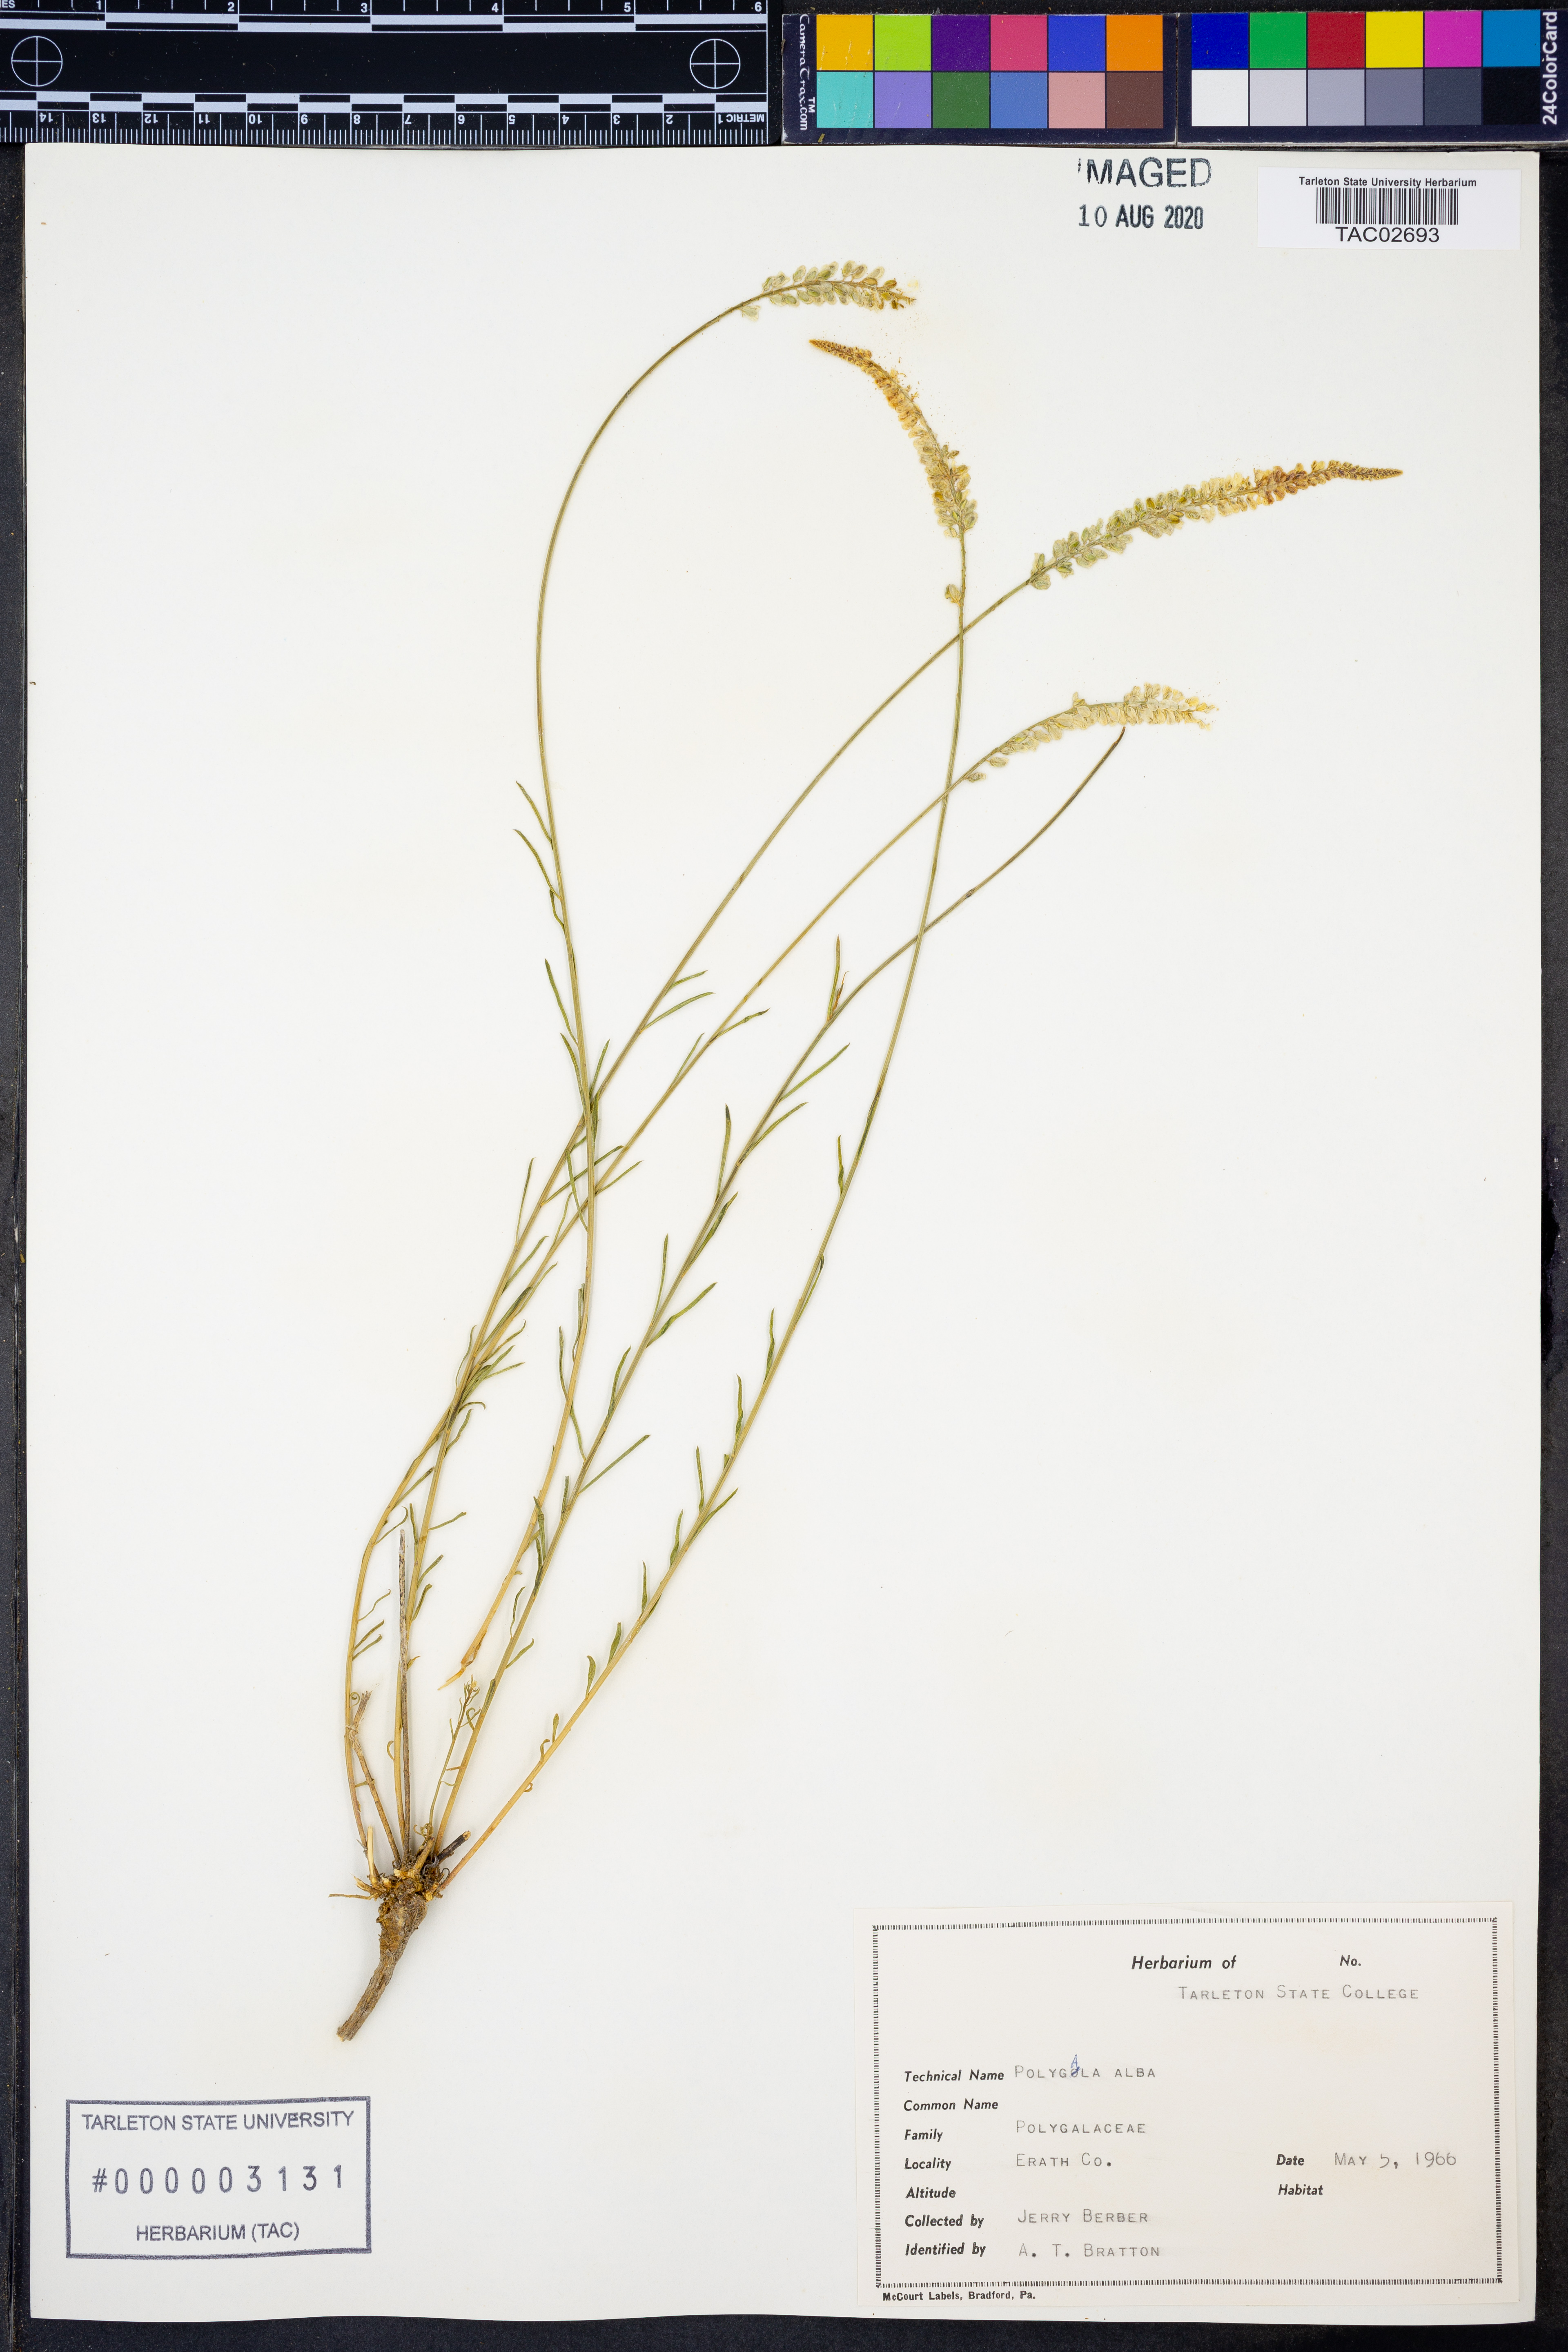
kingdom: Plantae
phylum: Tracheophyta
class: Magnoliopsida
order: Fabales
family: Polygalaceae
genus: Polygala
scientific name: Polygala alba
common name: White milkwort
